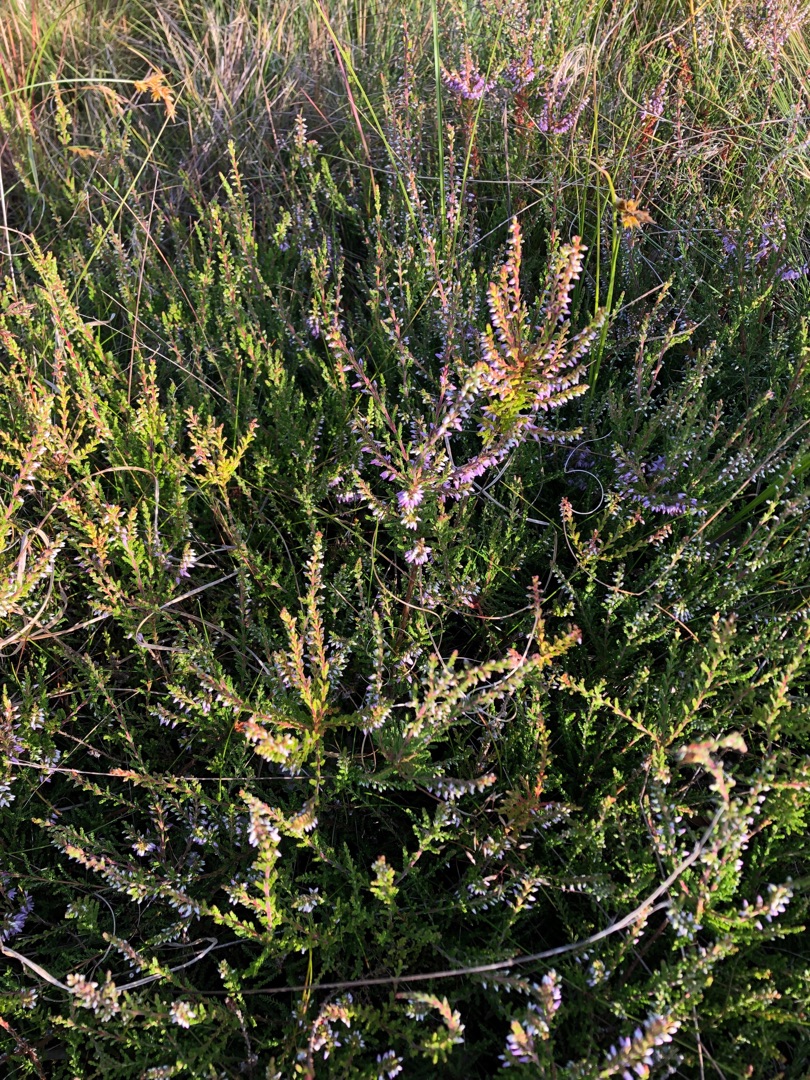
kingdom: Plantae
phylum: Tracheophyta
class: Magnoliopsida
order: Ericales
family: Ericaceae
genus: Calluna
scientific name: Calluna vulgaris
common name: Hedelyng
